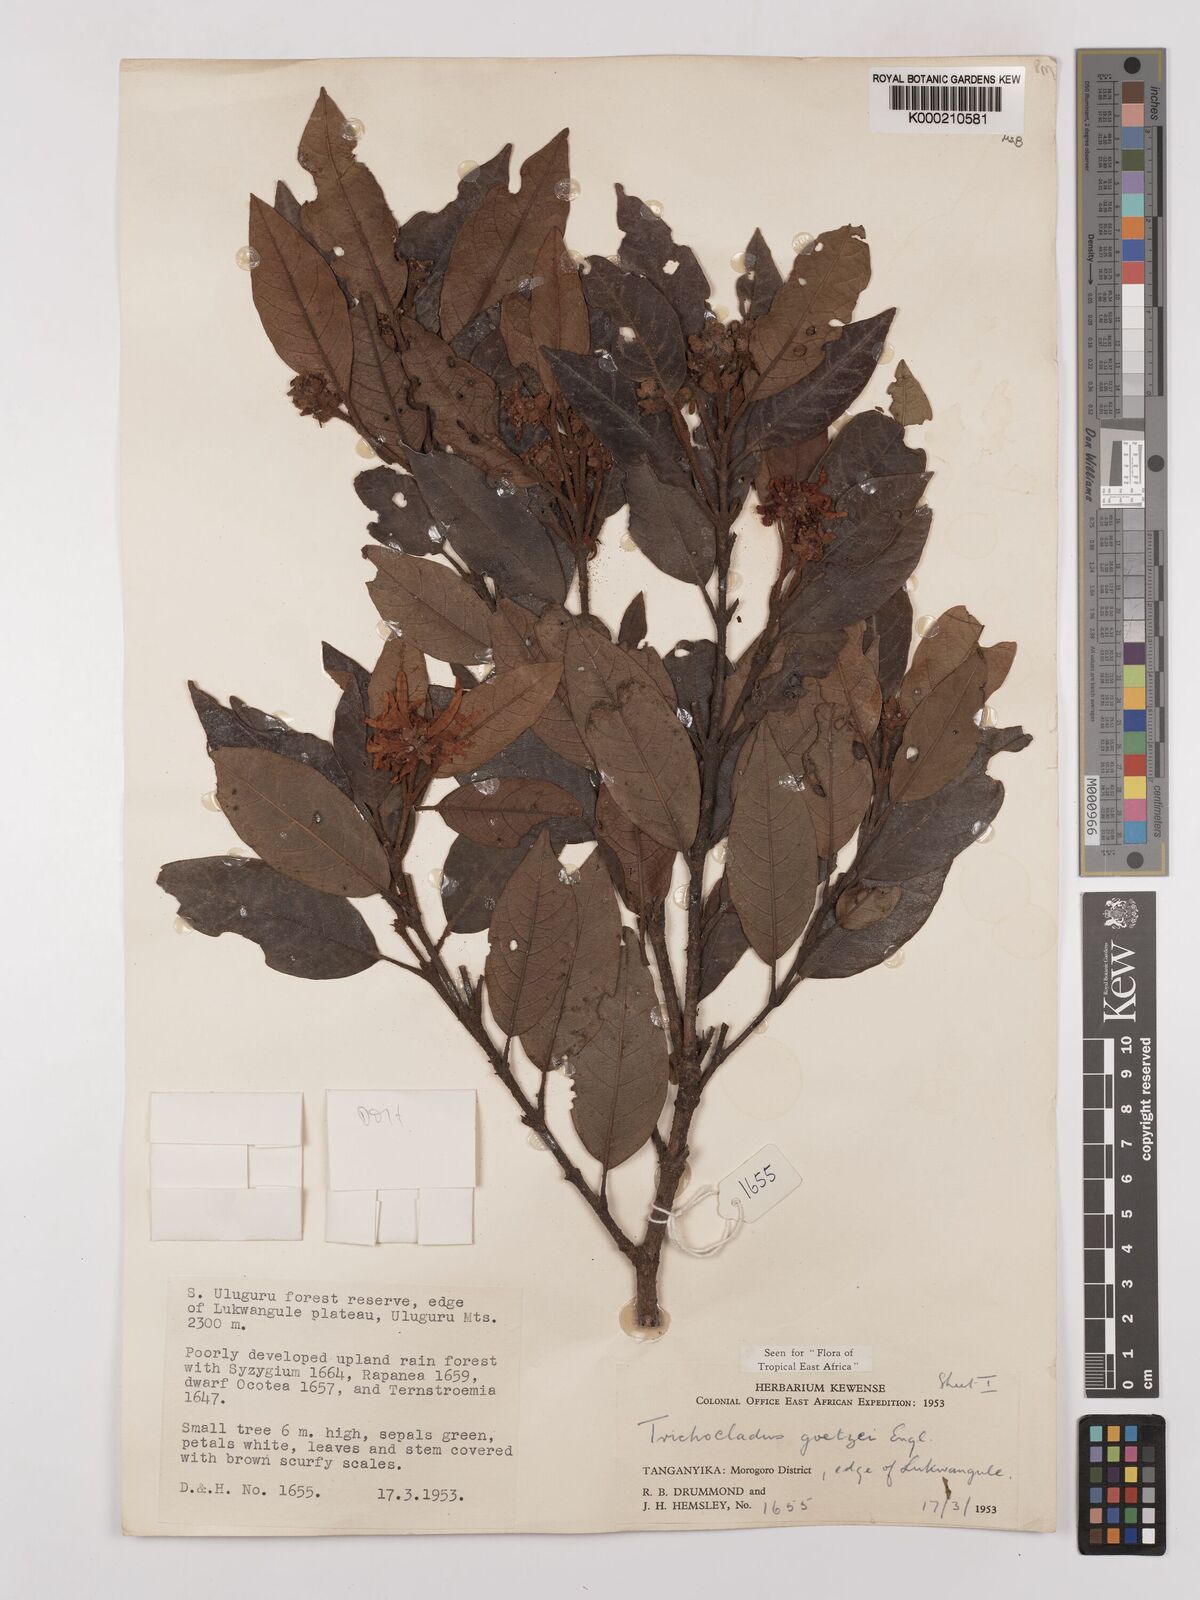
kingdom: Plantae
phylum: Tracheophyta
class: Magnoliopsida
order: Saxifragales
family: Hamamelidaceae
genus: Trichocladus
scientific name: Trichocladus goetzei
